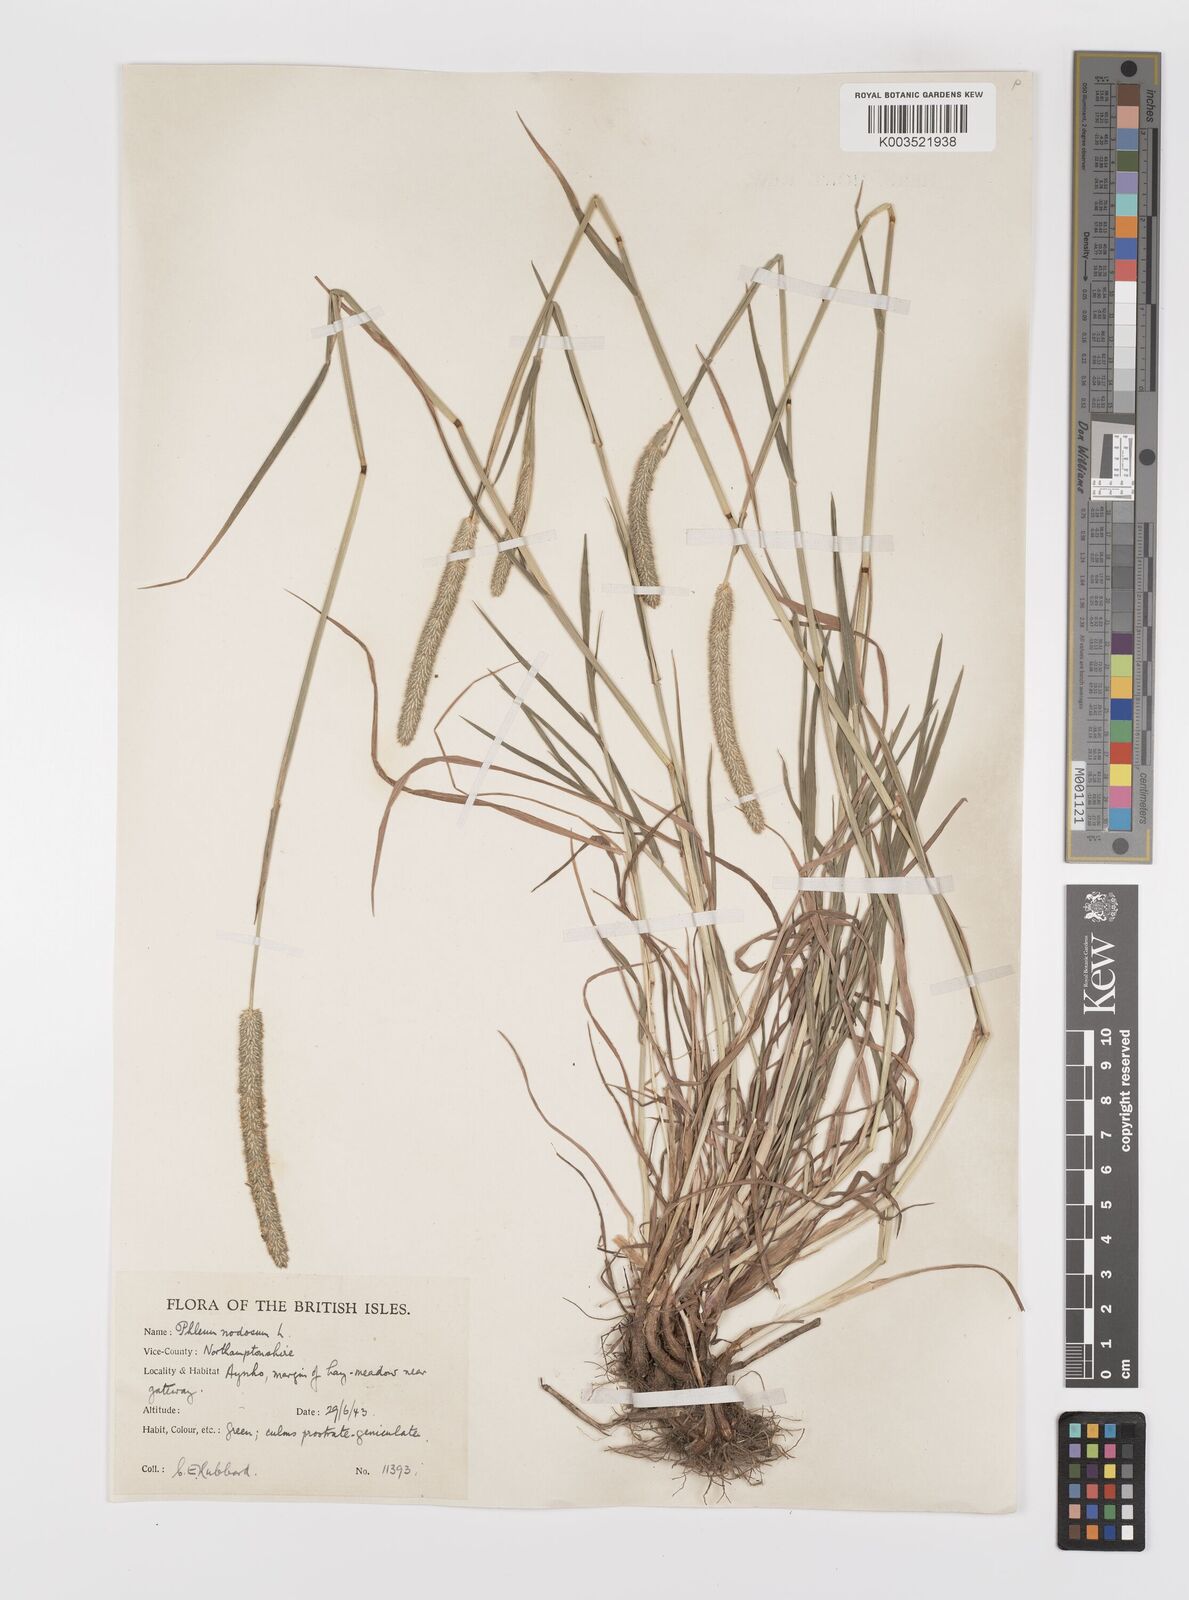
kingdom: Plantae
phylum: Tracheophyta
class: Liliopsida
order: Poales
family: Poaceae
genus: Phleum
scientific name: Phleum bertolonii
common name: Smaller cat's-tail
